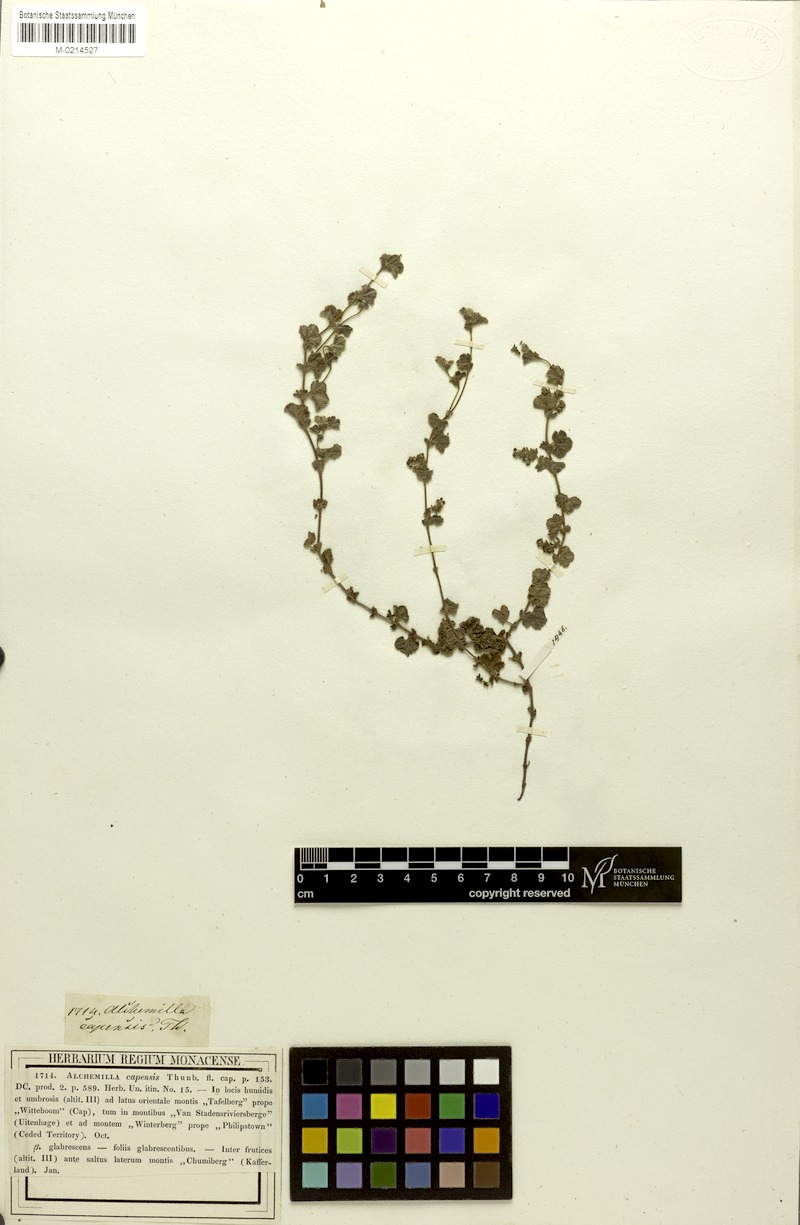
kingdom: Plantae
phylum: Tracheophyta
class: Magnoliopsida
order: Rosales
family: Rosaceae
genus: Alchemilla
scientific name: Alchemilla capensis
